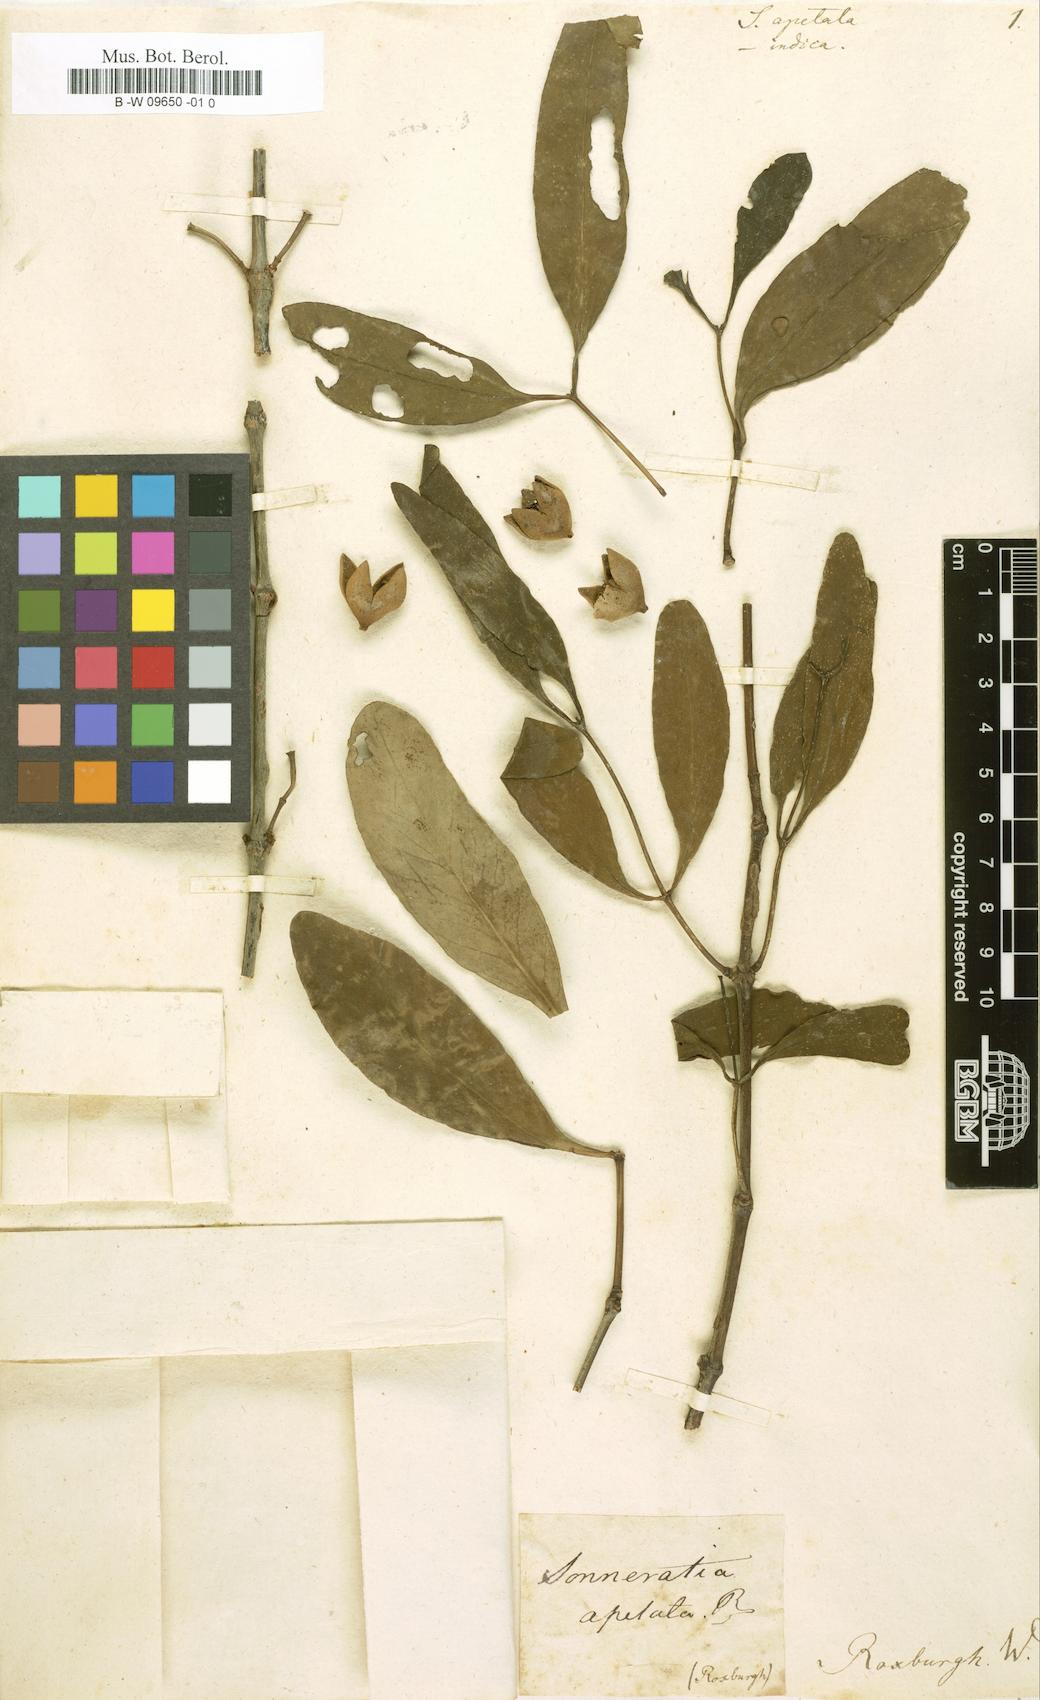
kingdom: Plantae
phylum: Tracheophyta
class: Magnoliopsida
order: Myrtales
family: Lythraceae
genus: Sonneratia
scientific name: Sonneratia apetala
